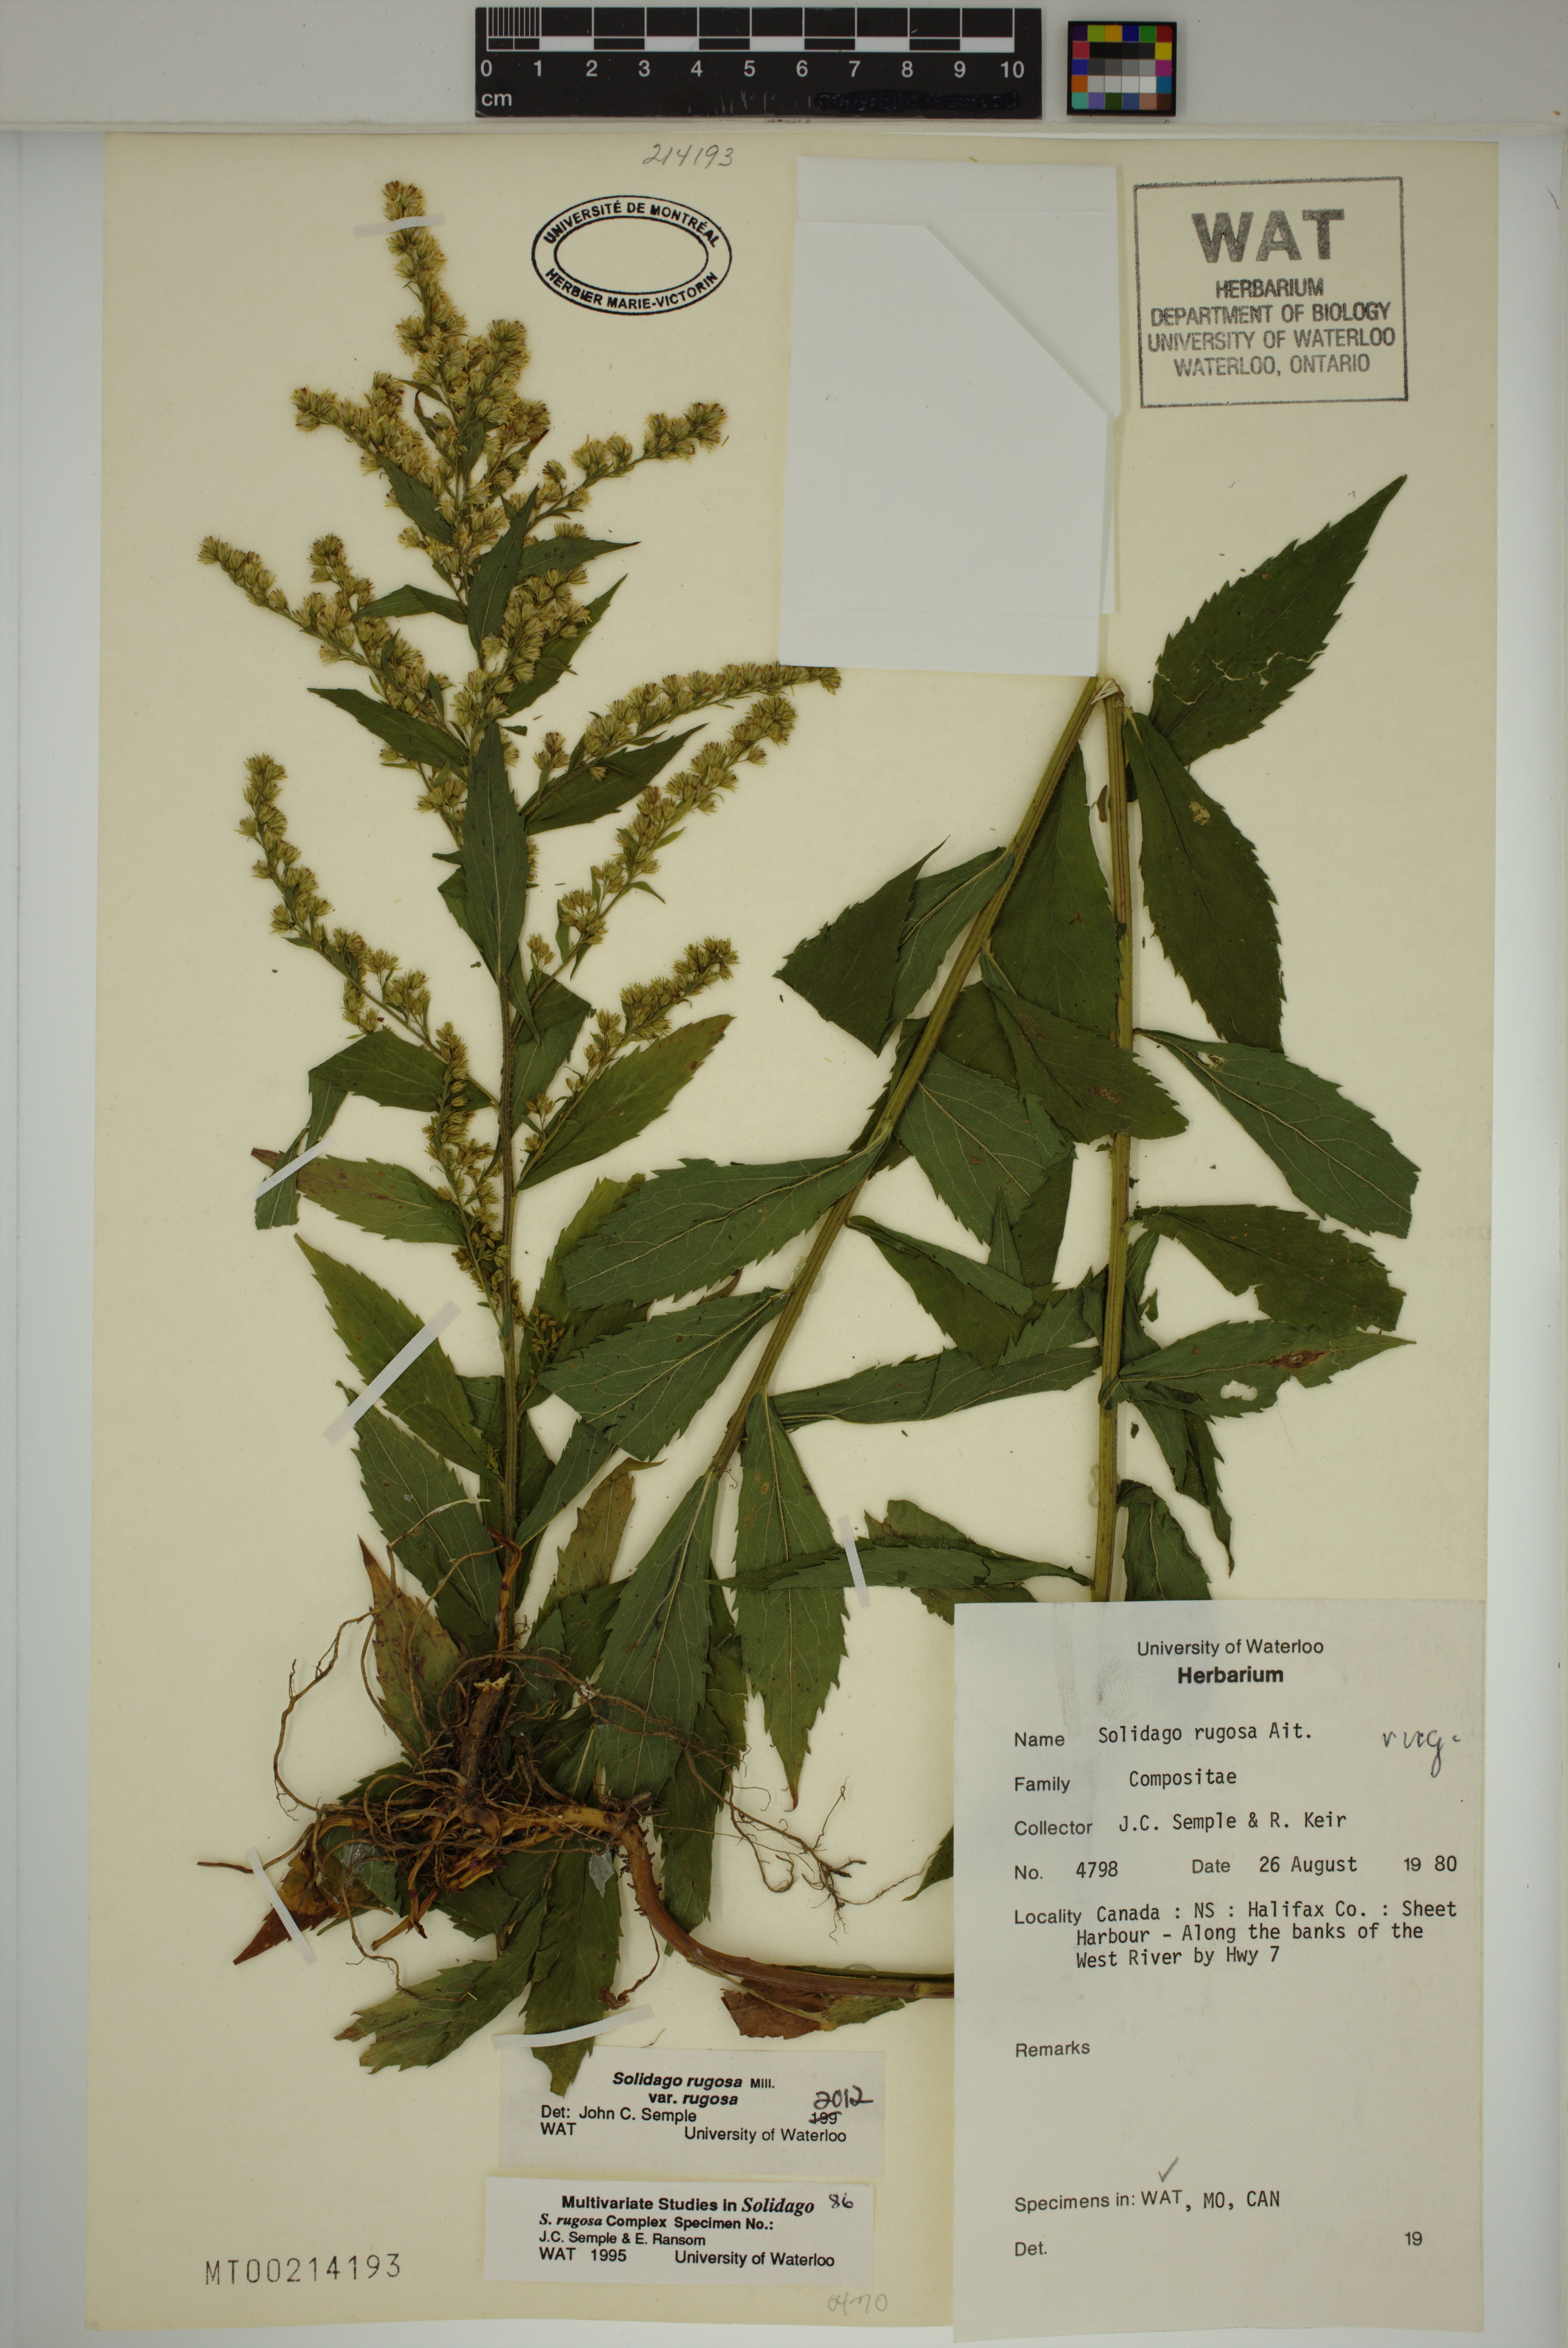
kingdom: Plantae
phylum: Tracheophyta
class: Magnoliopsida
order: Asterales
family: Asteraceae
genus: Solidago
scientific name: Solidago rugosa
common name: Rough-stemmed goldenrod
